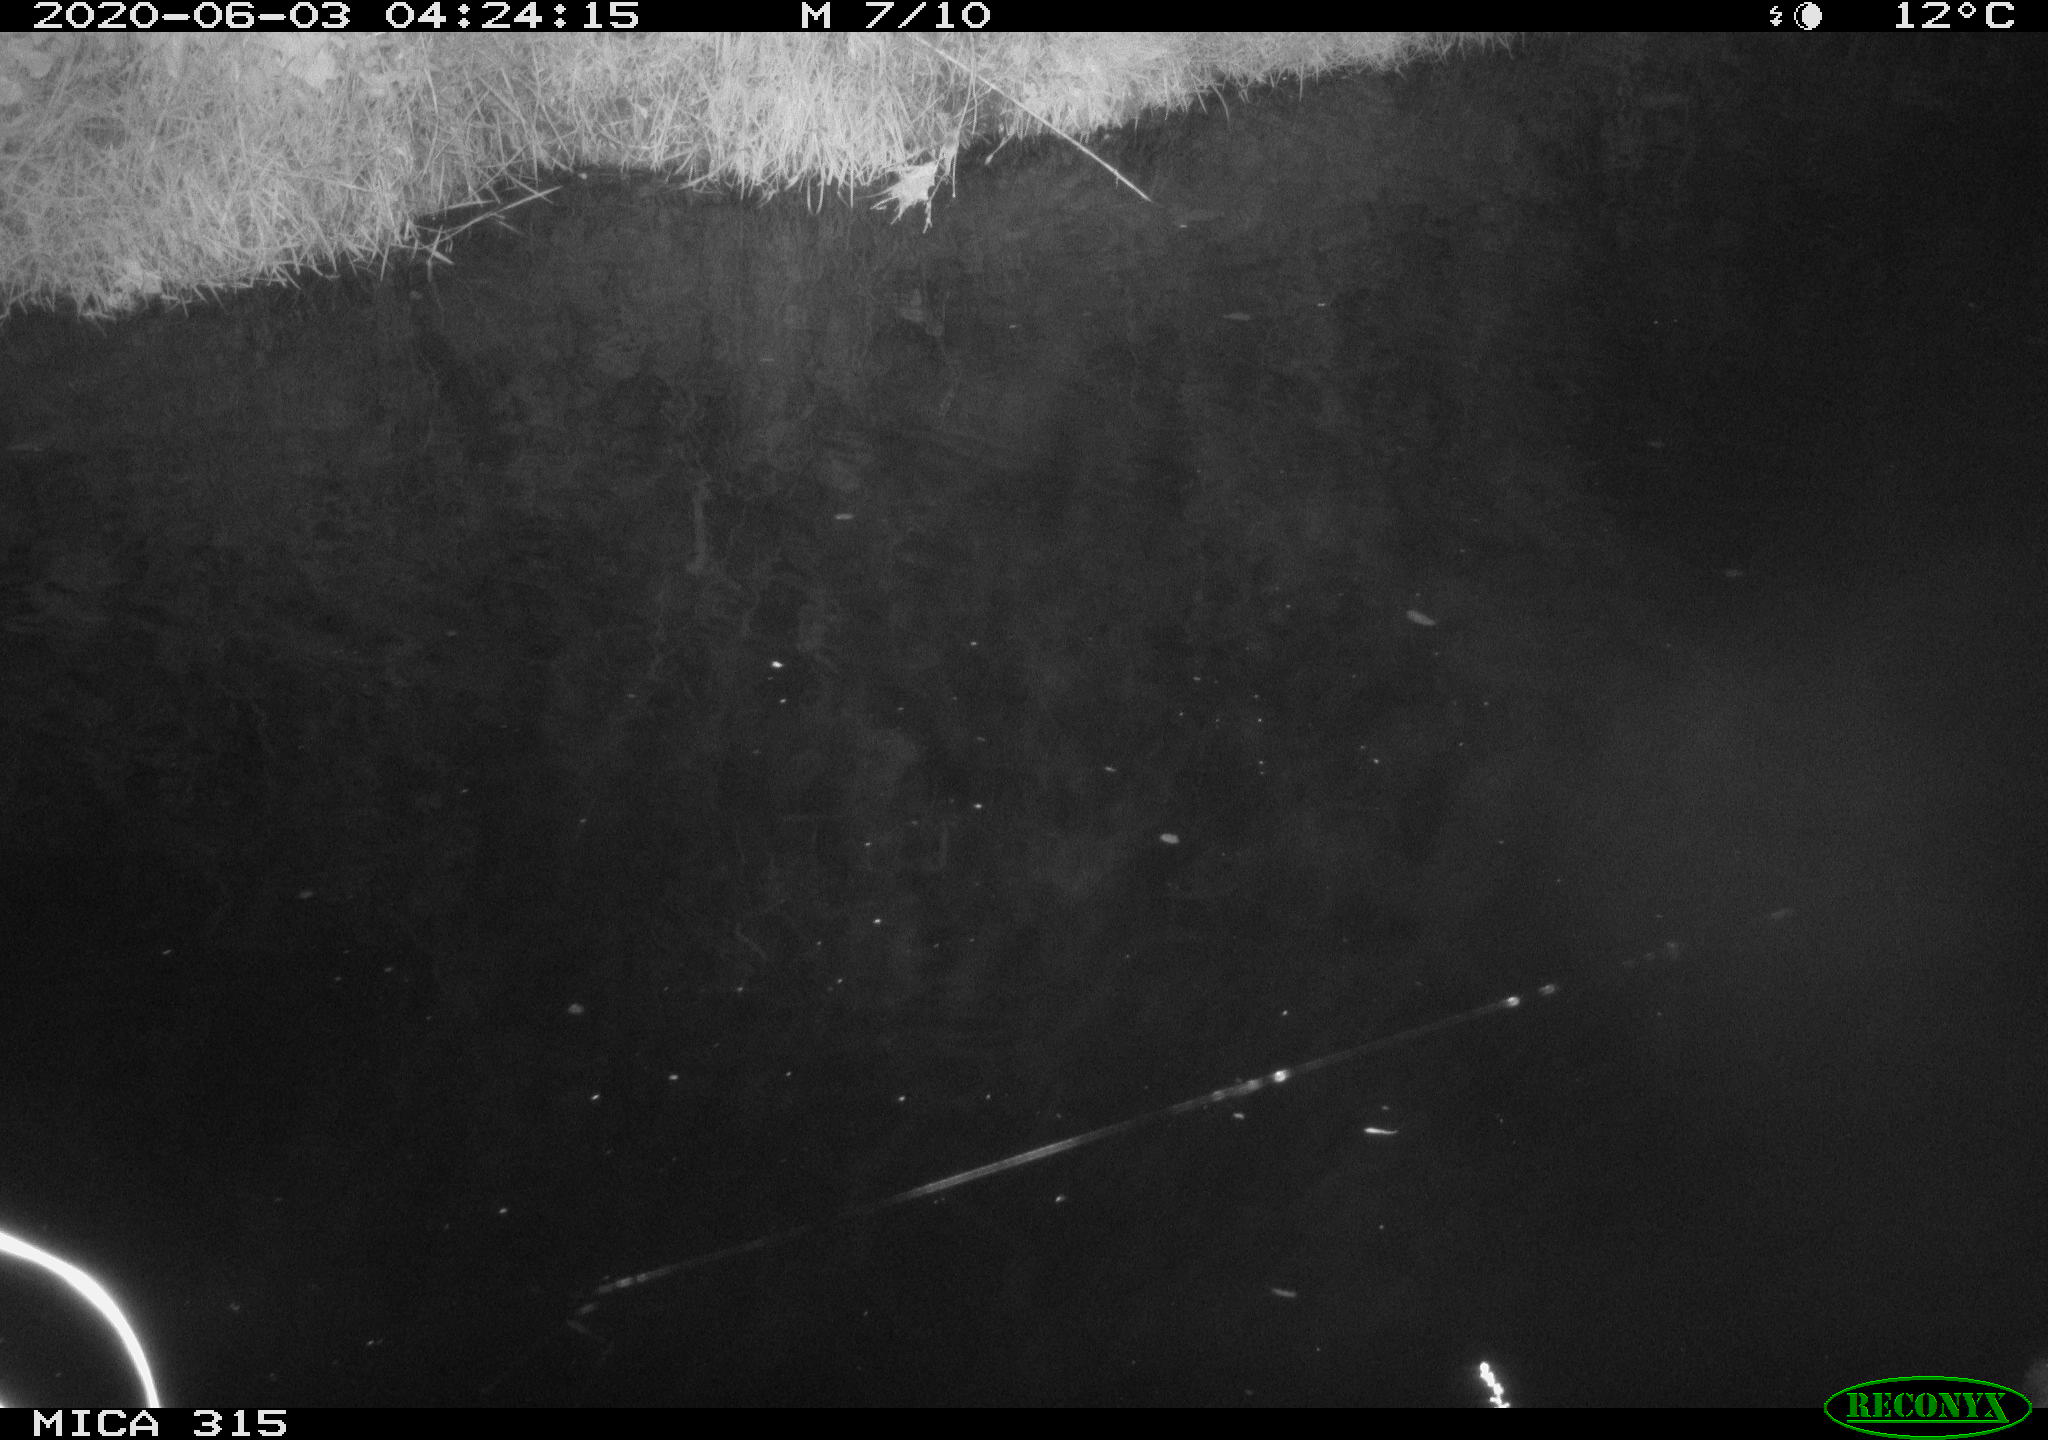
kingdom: Animalia
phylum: Chordata
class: Aves
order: Anseriformes
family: Anatidae
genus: Anas
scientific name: Anas platyrhynchos
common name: Mallard
